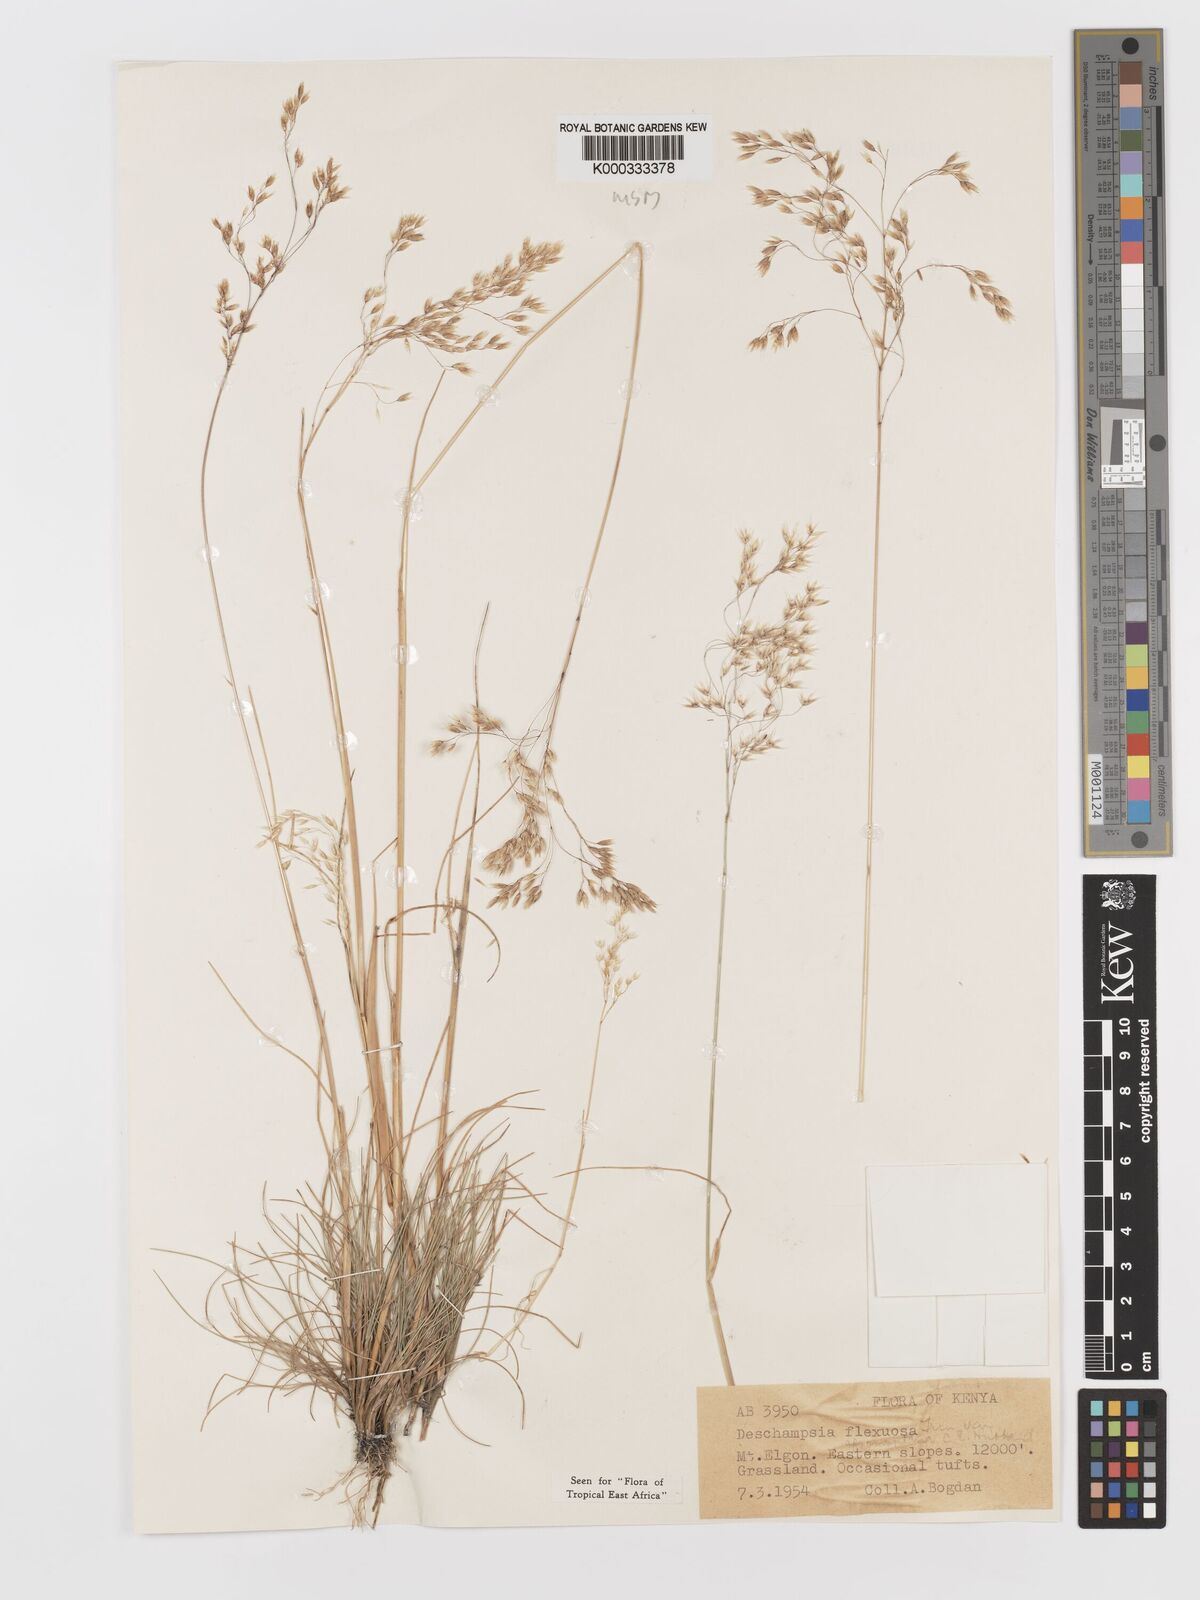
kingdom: Plantae
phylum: Tracheophyta
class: Liliopsida
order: Poales
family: Poaceae
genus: Avenella
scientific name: Avenella flexuosa
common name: Wavy hairgrass
